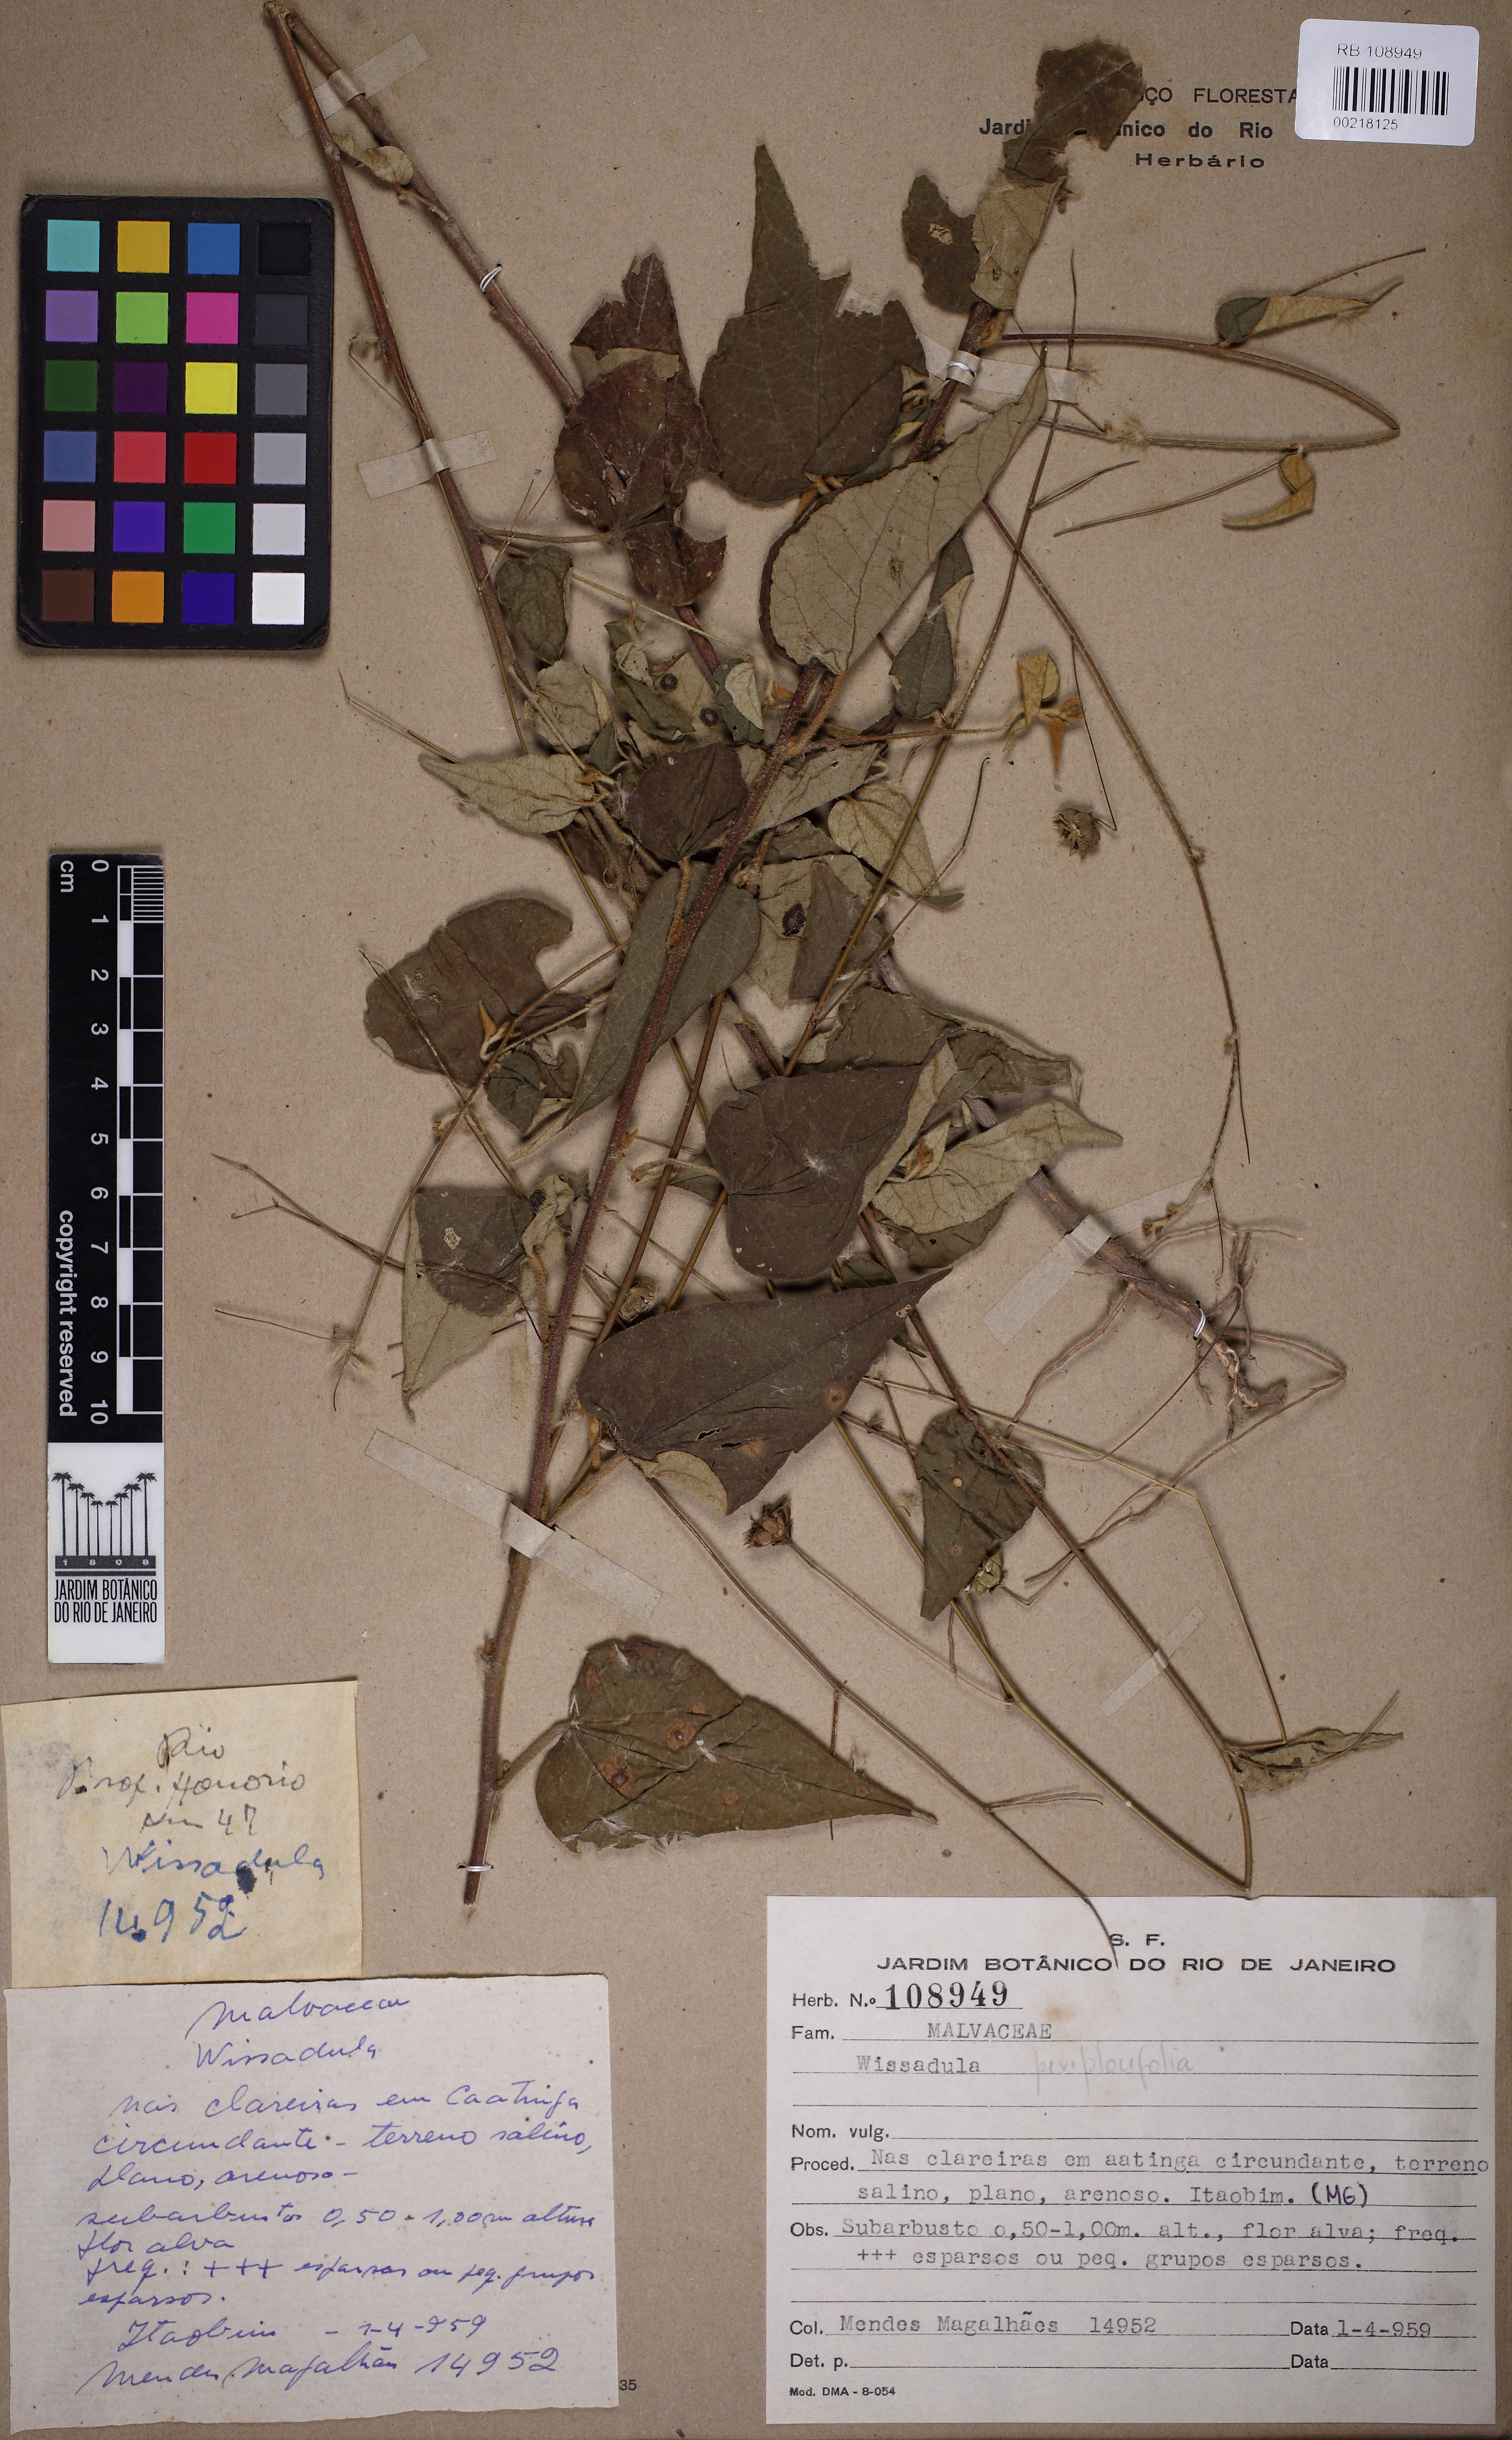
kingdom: Plantae
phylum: Tracheophyta
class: Magnoliopsida
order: Malvales
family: Malvaceae
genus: Wissadula
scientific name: Wissadula periplocifolia
